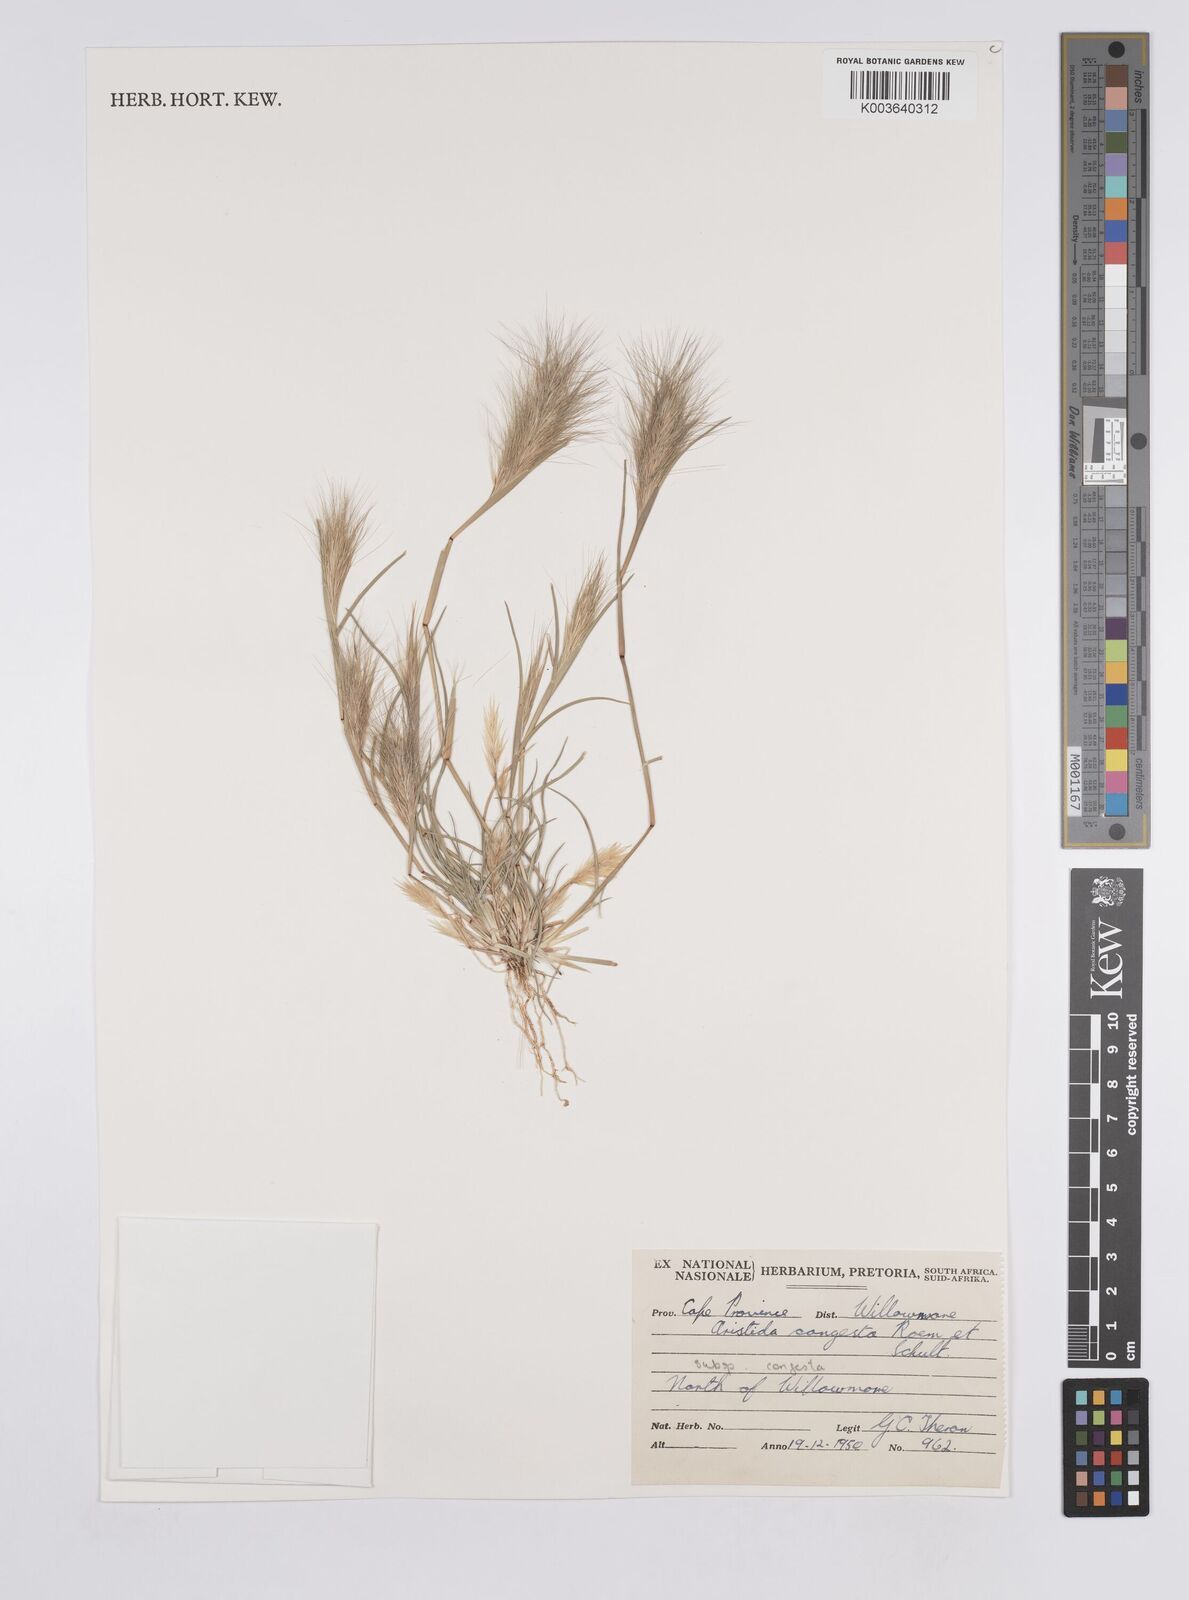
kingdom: Plantae
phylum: Tracheophyta
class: Liliopsida
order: Poales
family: Poaceae
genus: Aristida
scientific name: Aristida congesta
